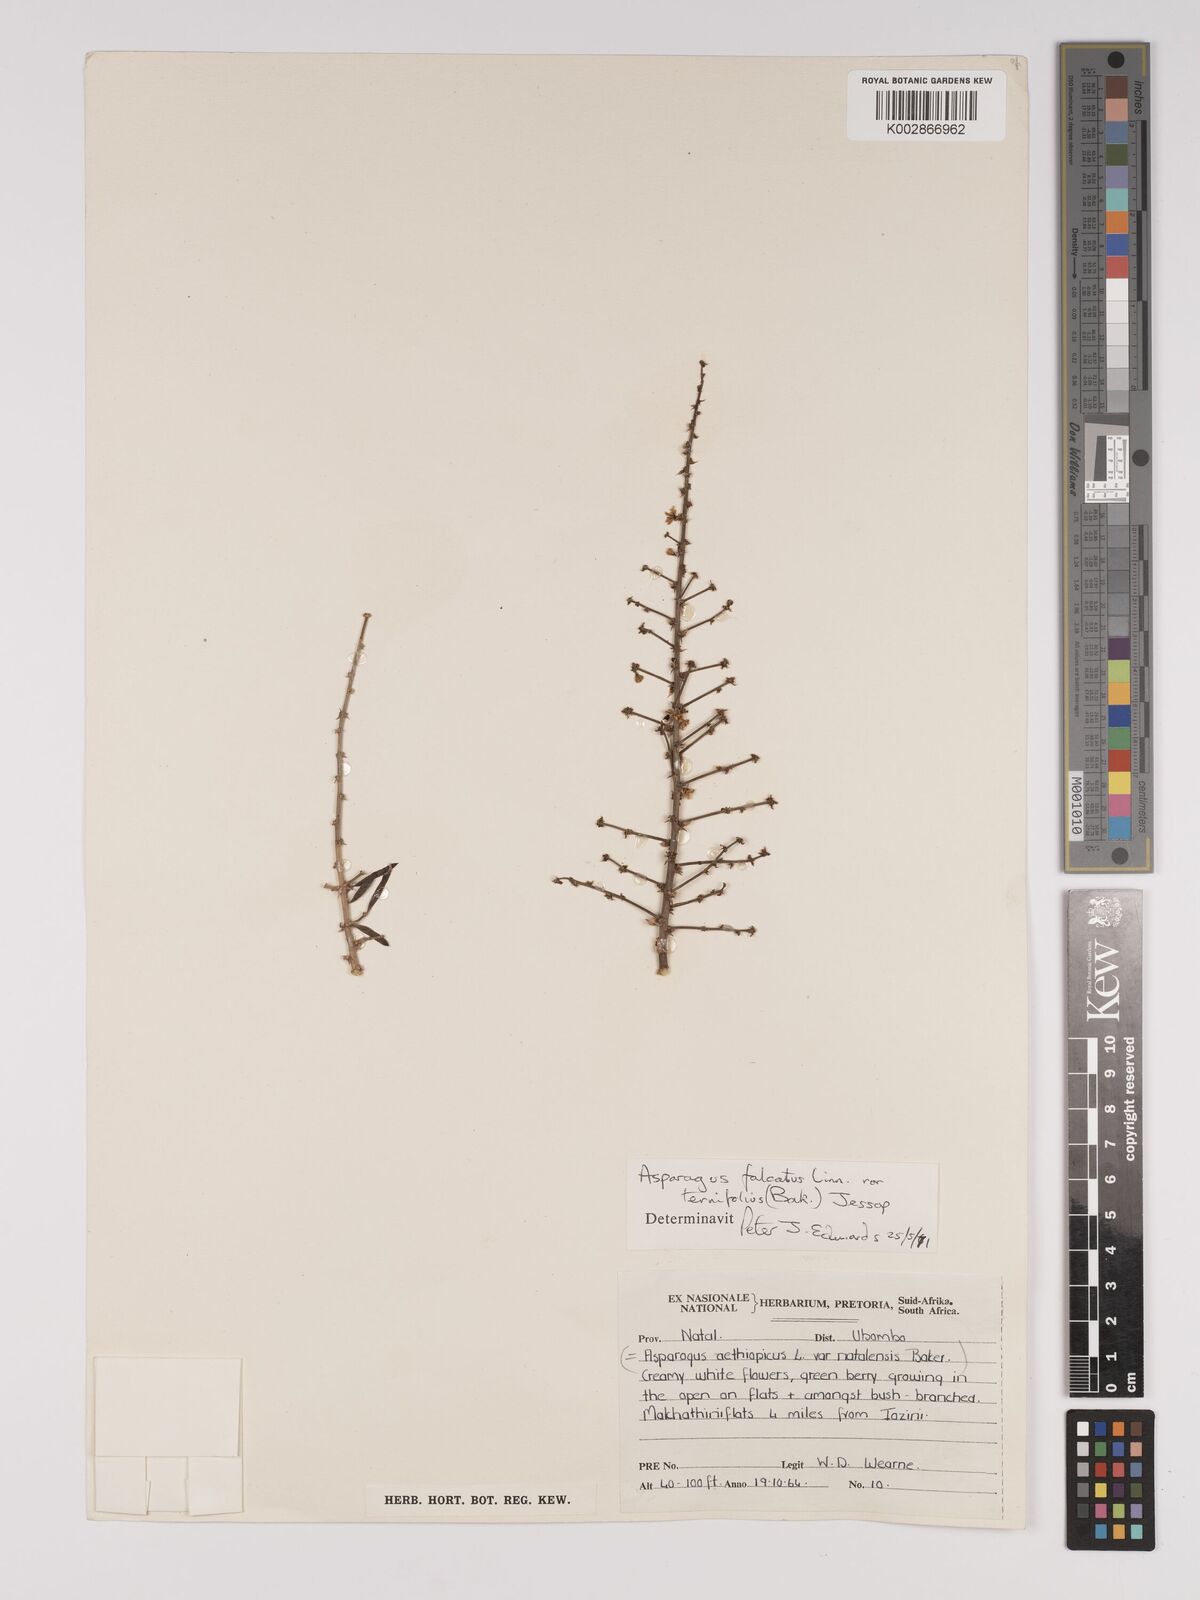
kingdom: Plantae
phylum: Tracheophyta
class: Liliopsida
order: Asparagales
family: Asparagaceae
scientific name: Asparagaceae
